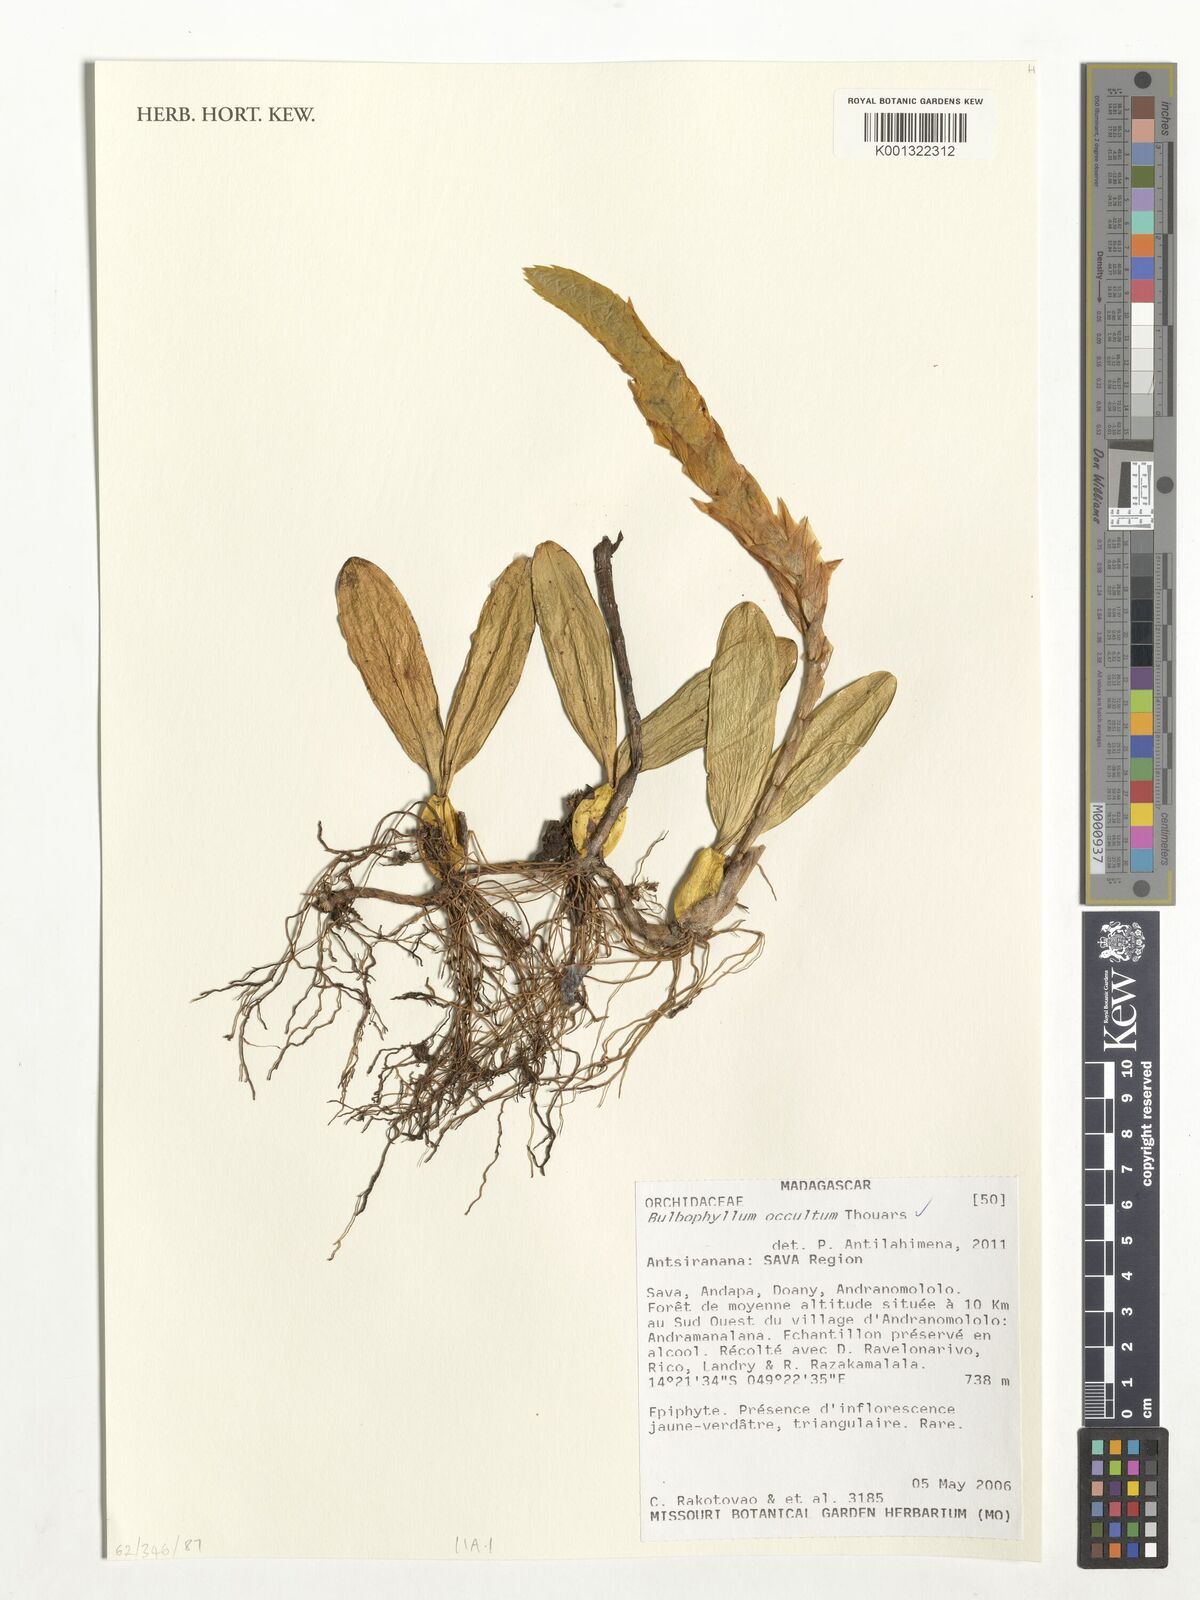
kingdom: Plantae
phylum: Tracheophyta
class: Liliopsida
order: Asparagales
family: Orchidaceae
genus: Bulbophyllum
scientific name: Bulbophyllum occultum
